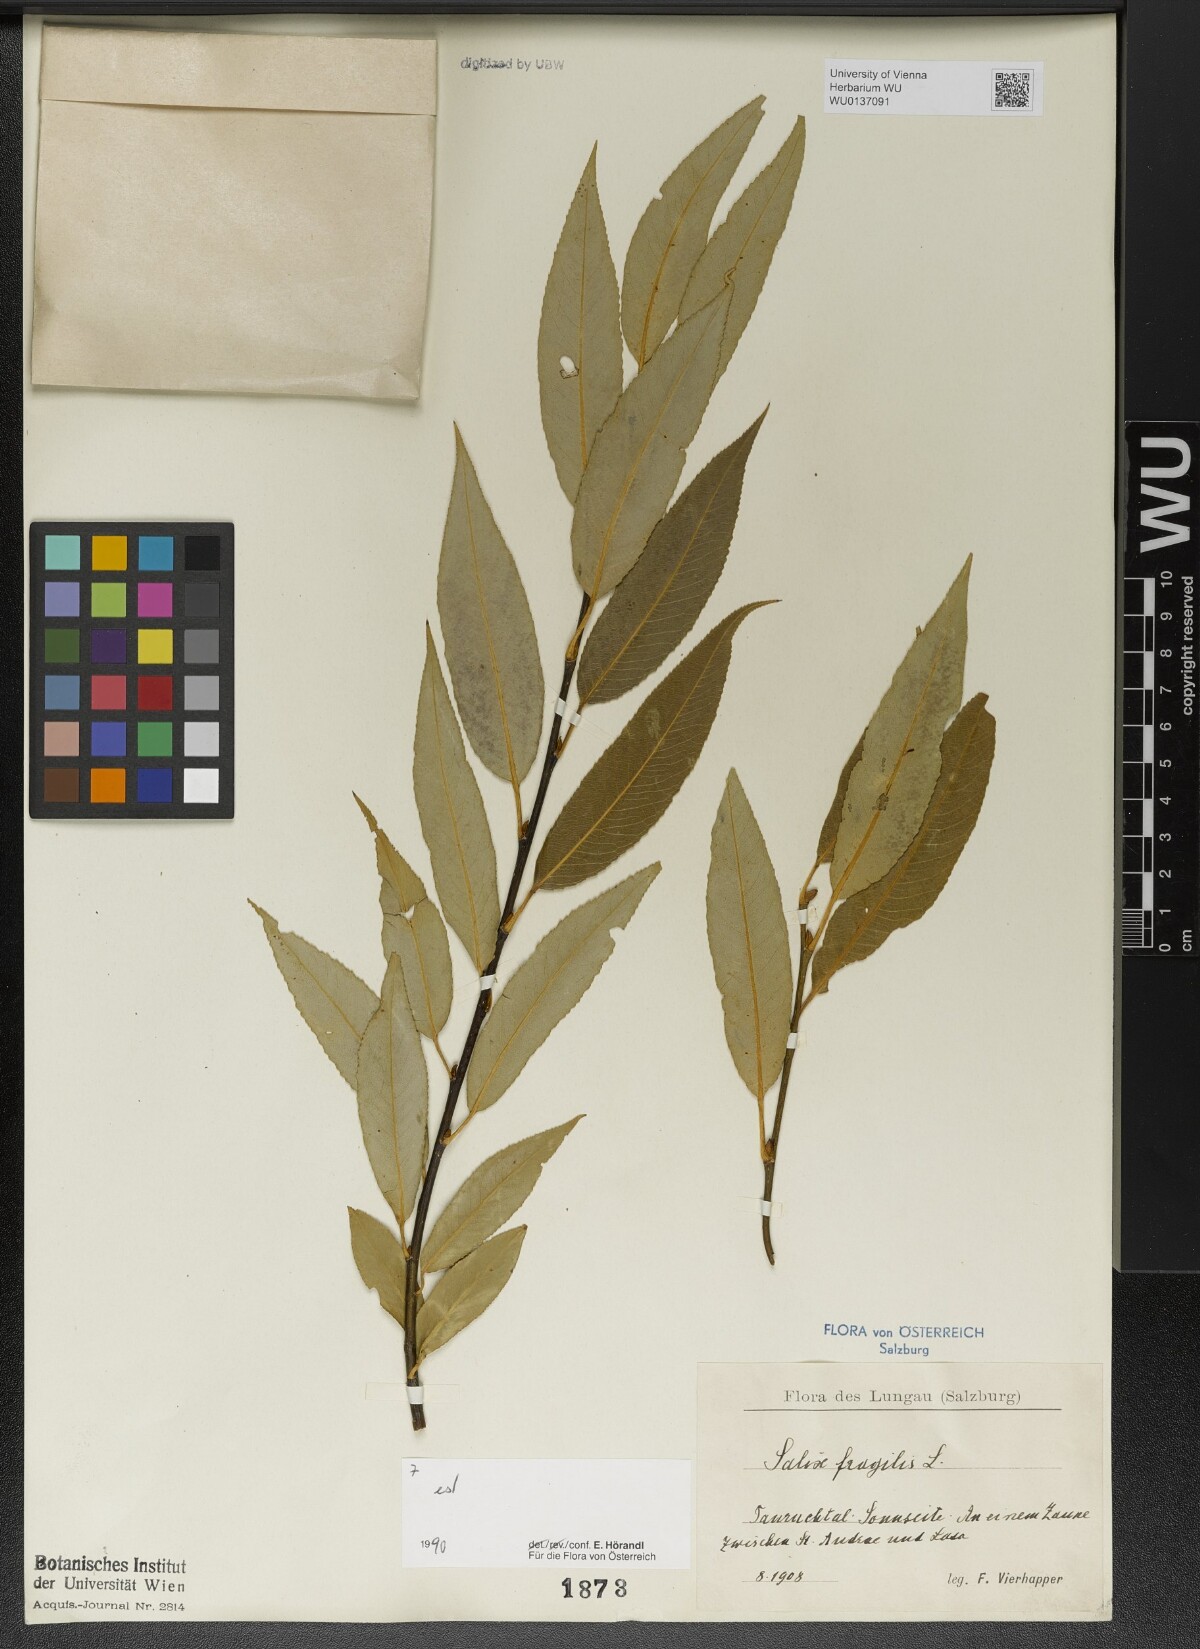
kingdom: Plantae
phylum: Tracheophyta
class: Magnoliopsida
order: Malpighiales
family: Salicaceae
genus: Salix
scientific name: Salix fragilis
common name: Crack willow
